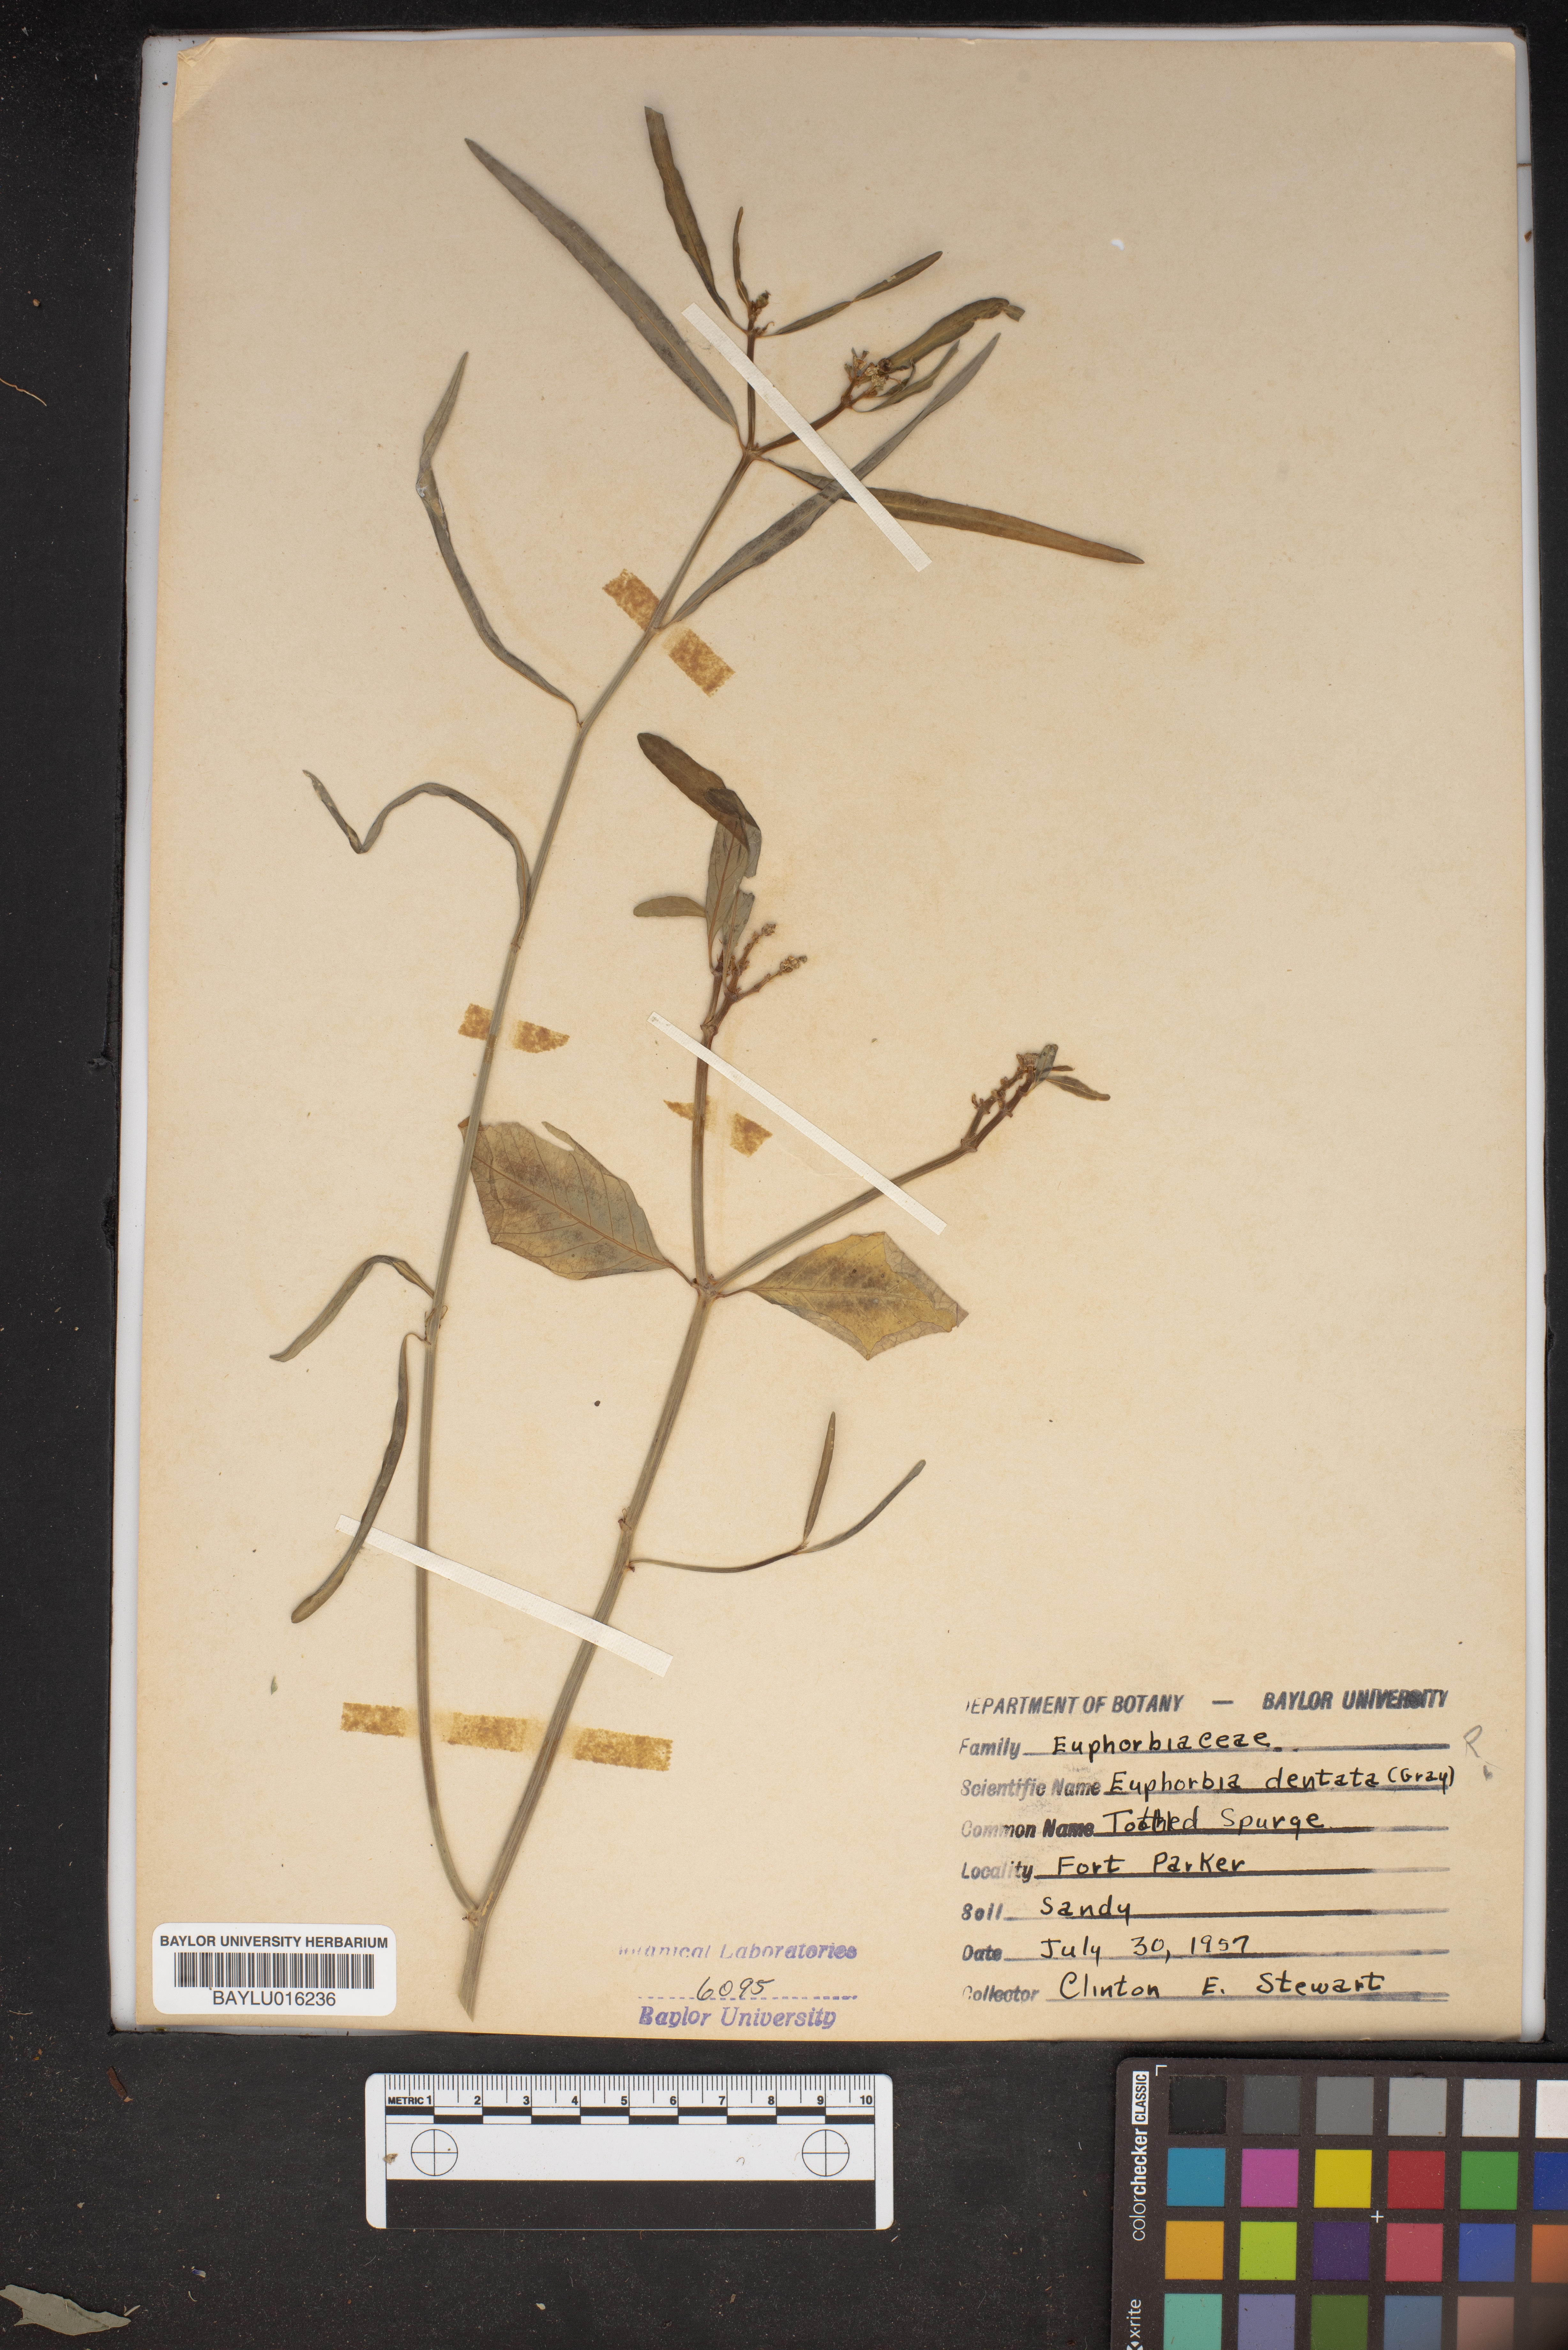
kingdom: Plantae
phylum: Tracheophyta
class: Magnoliopsida
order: Malpighiales
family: Euphorbiaceae
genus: Euphorbia
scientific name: Euphorbia dentata
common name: Dentate spurge
